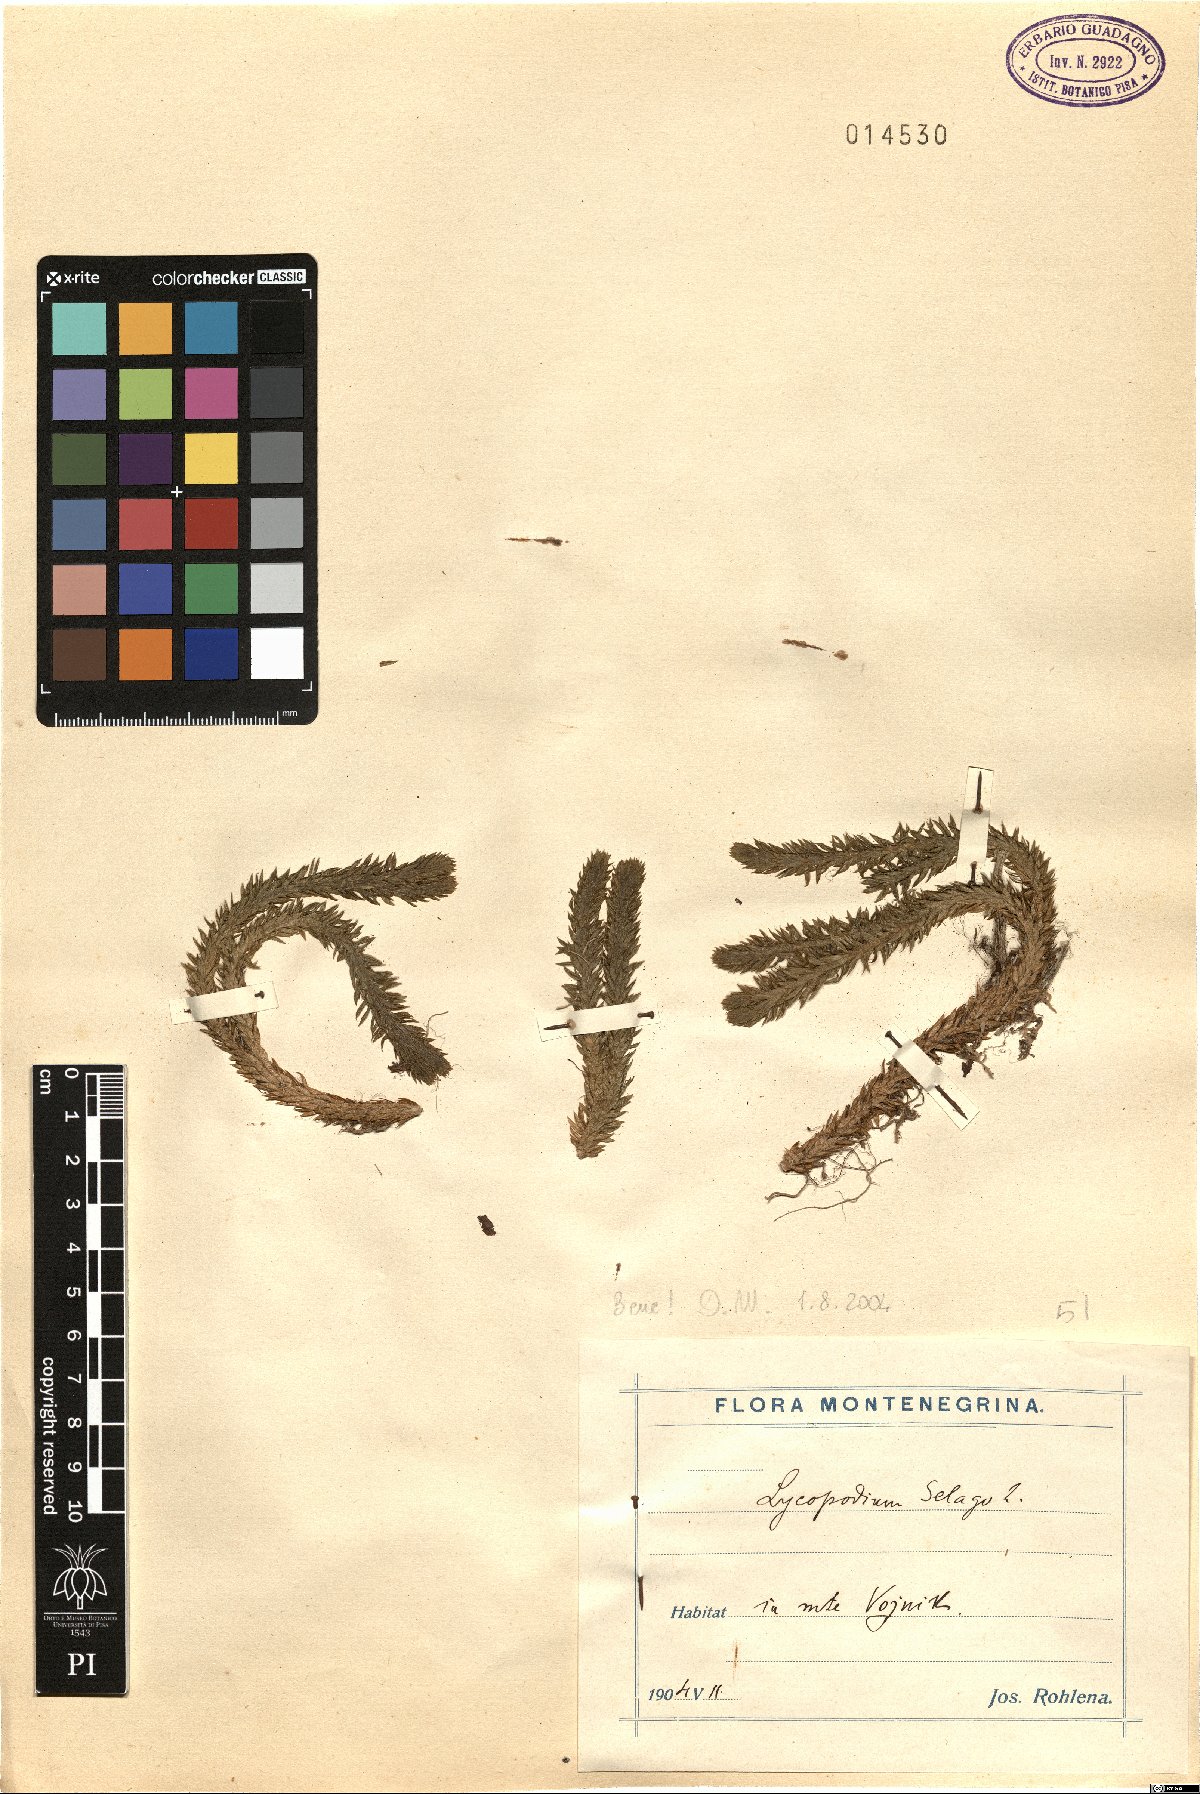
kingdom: Plantae
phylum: Tracheophyta
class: Lycopodiopsida
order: Lycopodiales
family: Lycopodiaceae
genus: Huperzia
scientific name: Huperzia selago
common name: Northern firmoss
